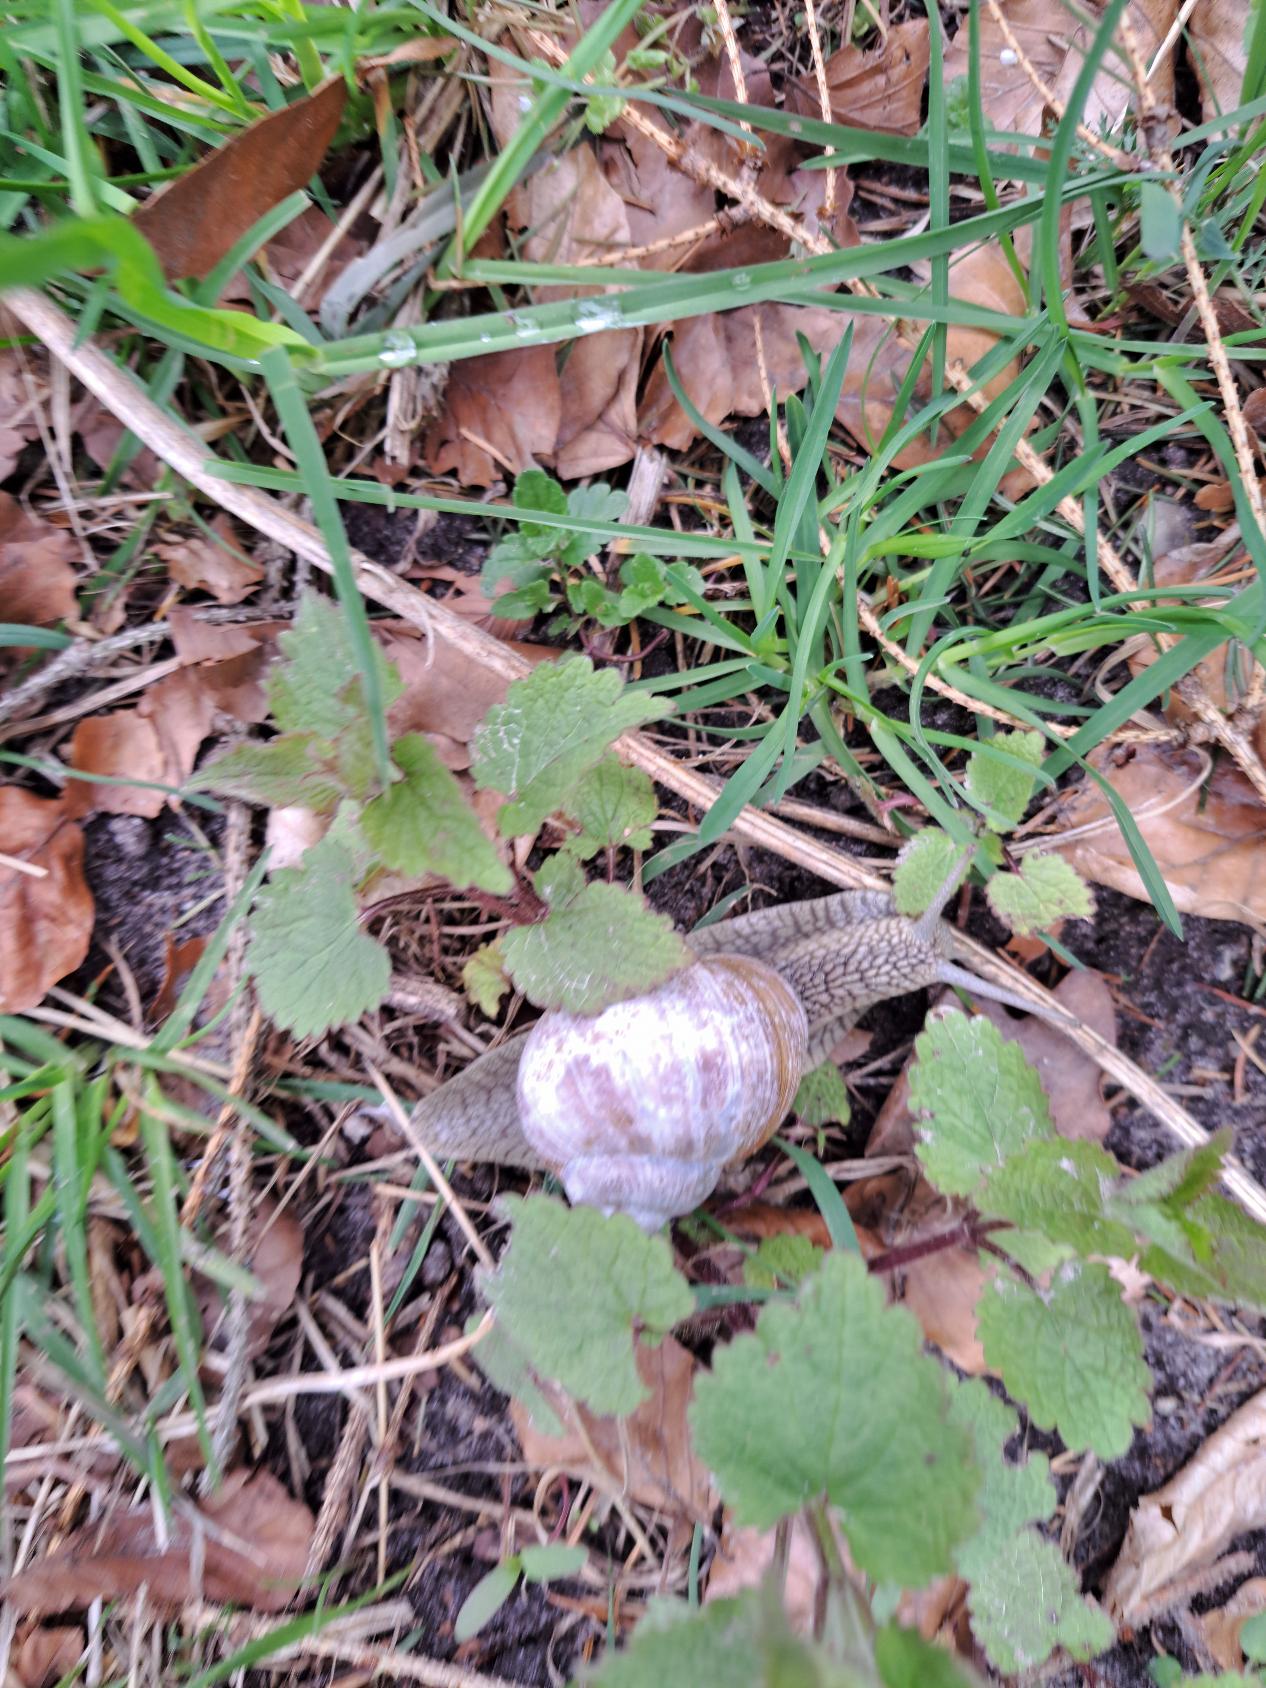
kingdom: Animalia
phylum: Mollusca
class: Gastropoda
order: Stylommatophora
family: Helicidae
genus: Helix
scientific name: Helix pomatia
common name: Vinbjergsnegl
